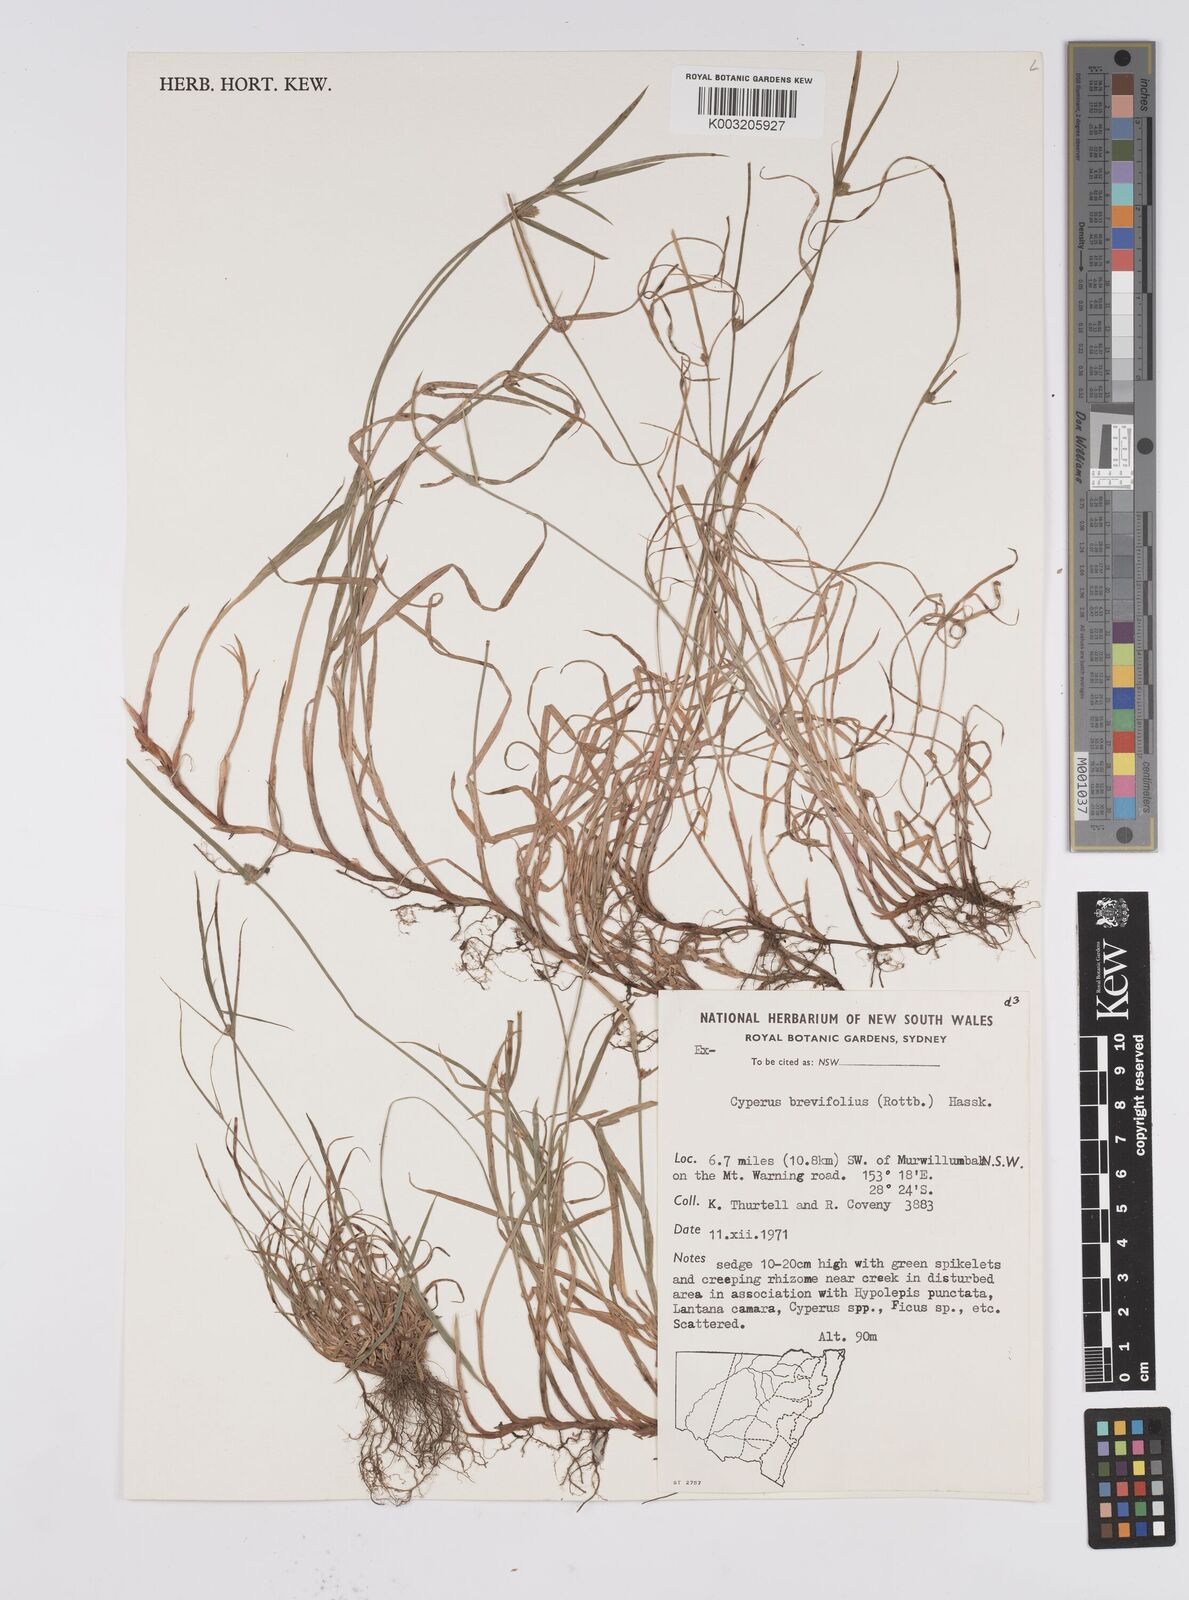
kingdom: Plantae
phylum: Tracheophyta
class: Liliopsida
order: Poales
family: Cyperaceae
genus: Cyperus
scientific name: Cyperus brevifolius
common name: Globe kyllinga
